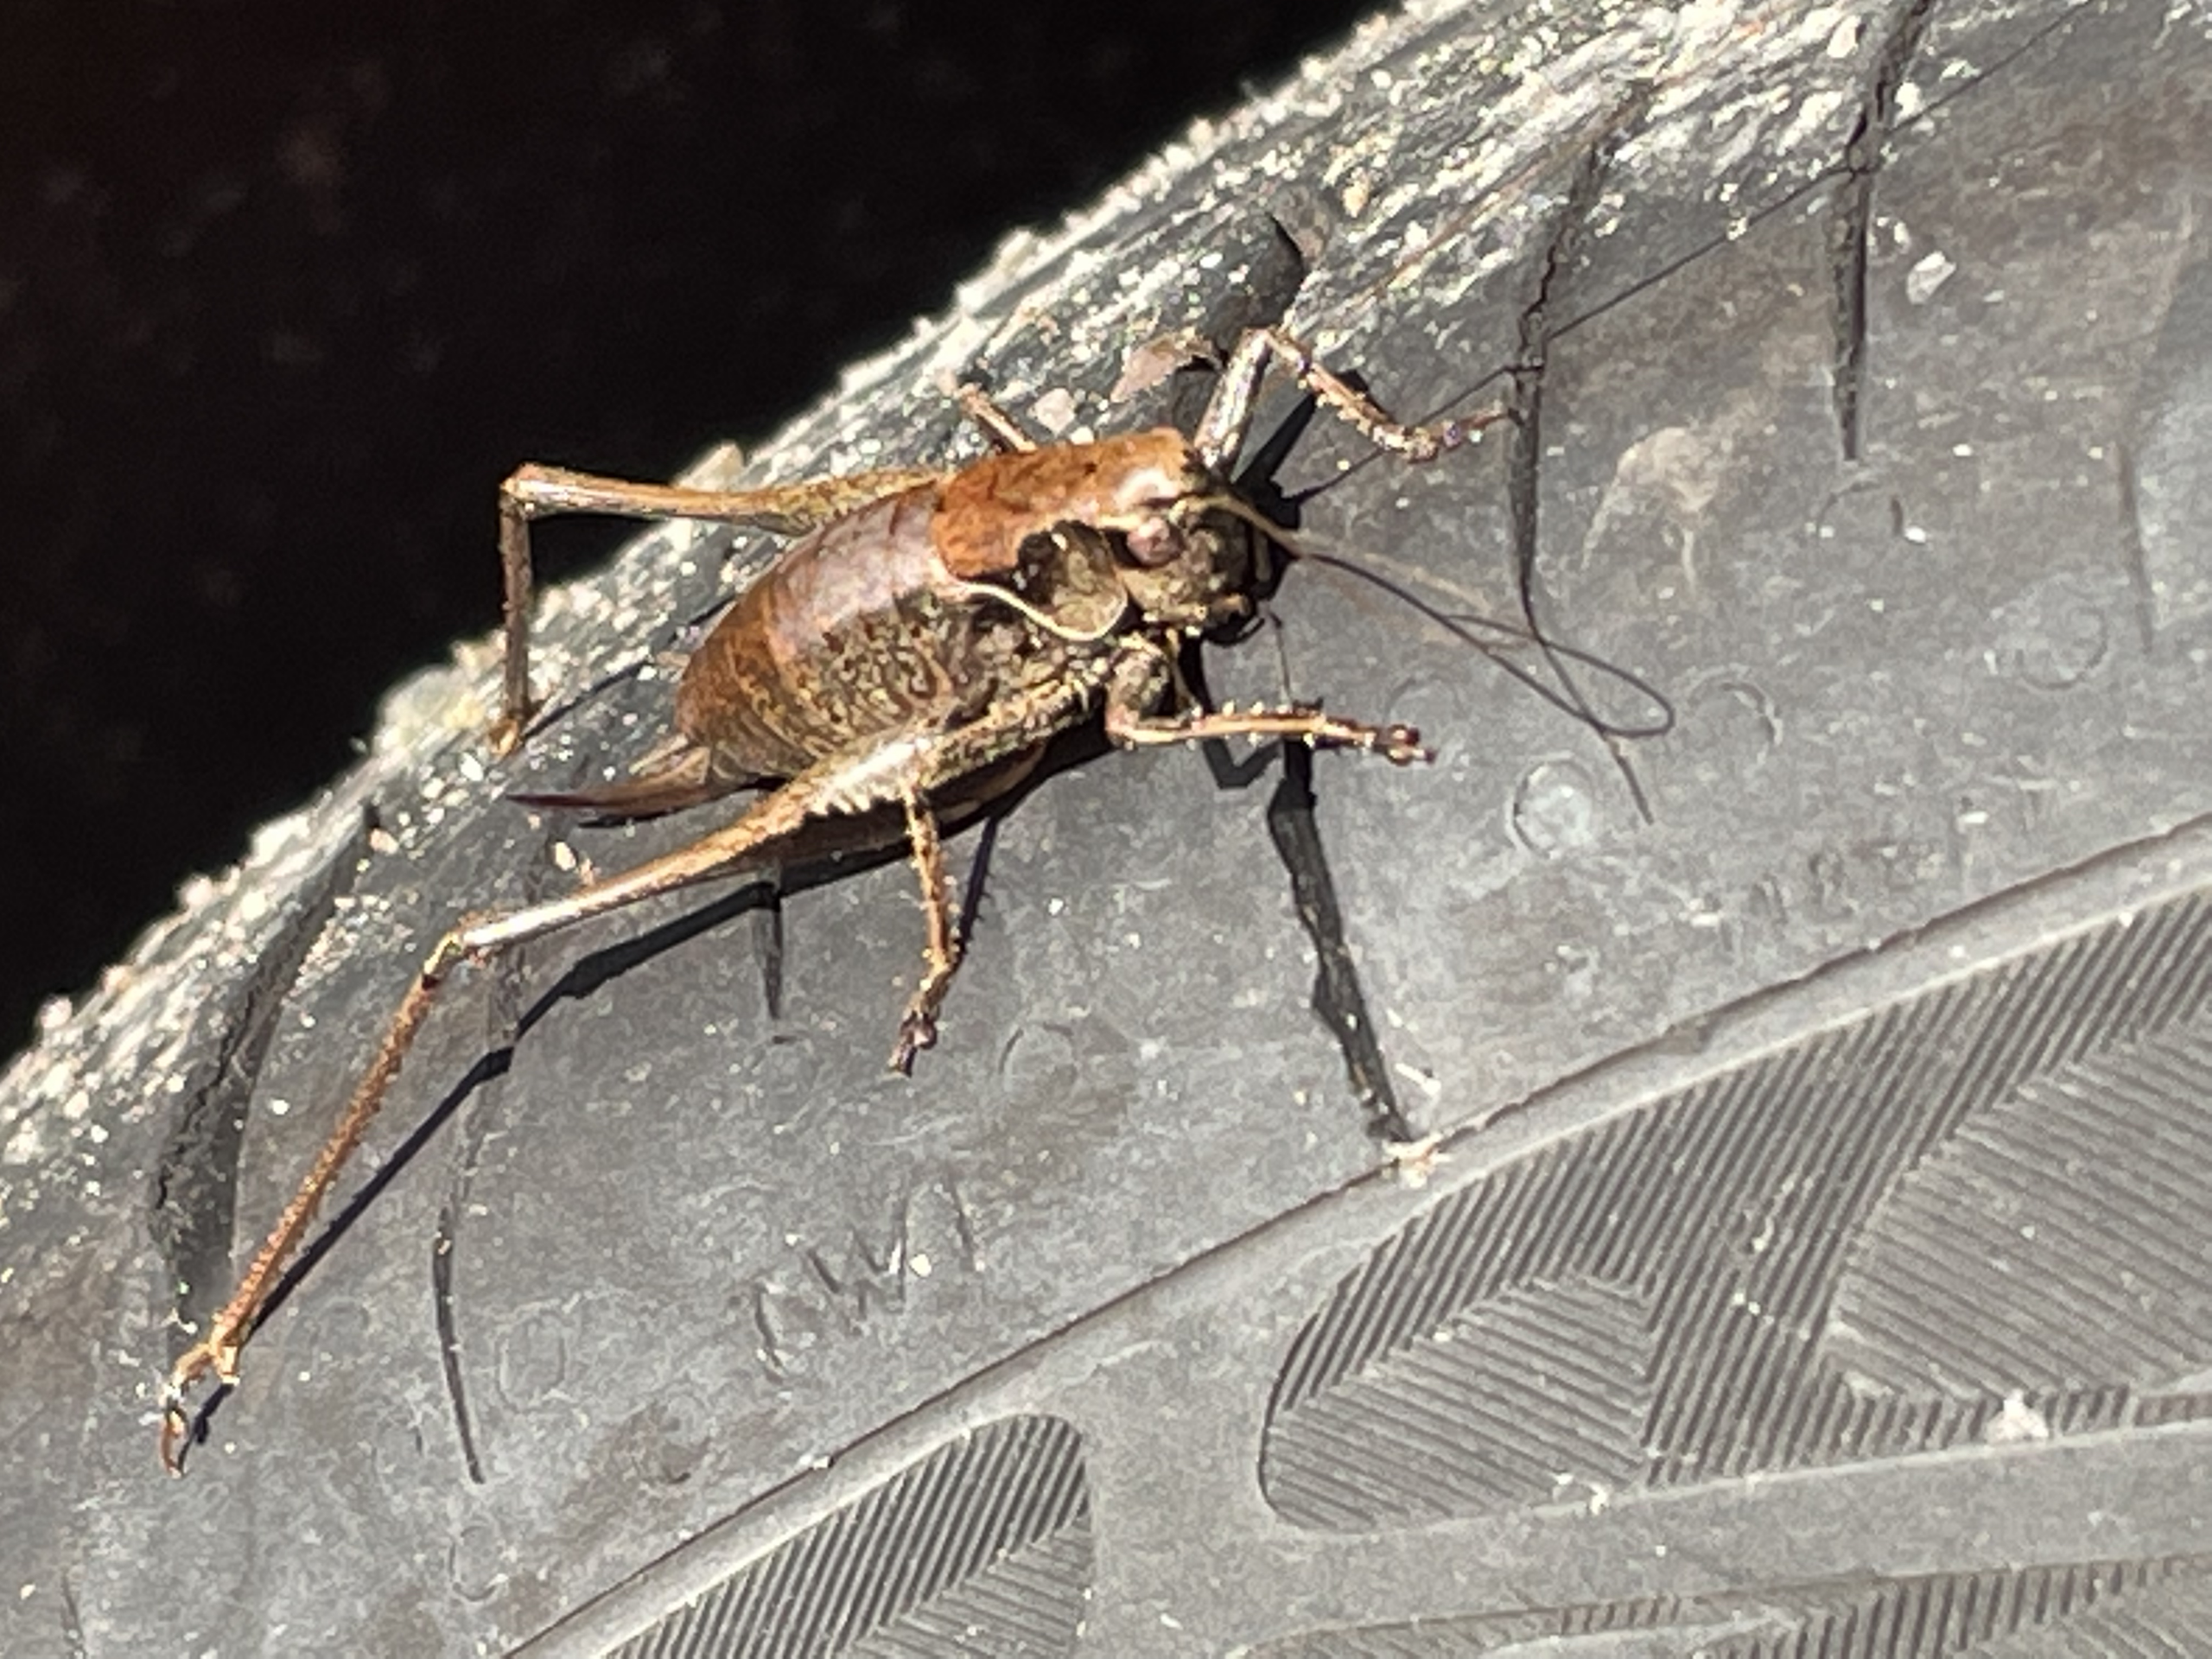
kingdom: Animalia
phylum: Arthropoda
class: Insecta
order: Orthoptera
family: Tettigoniidae
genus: Pholidoptera
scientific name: Pholidoptera griseoaptera
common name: Buskgræshoppe
